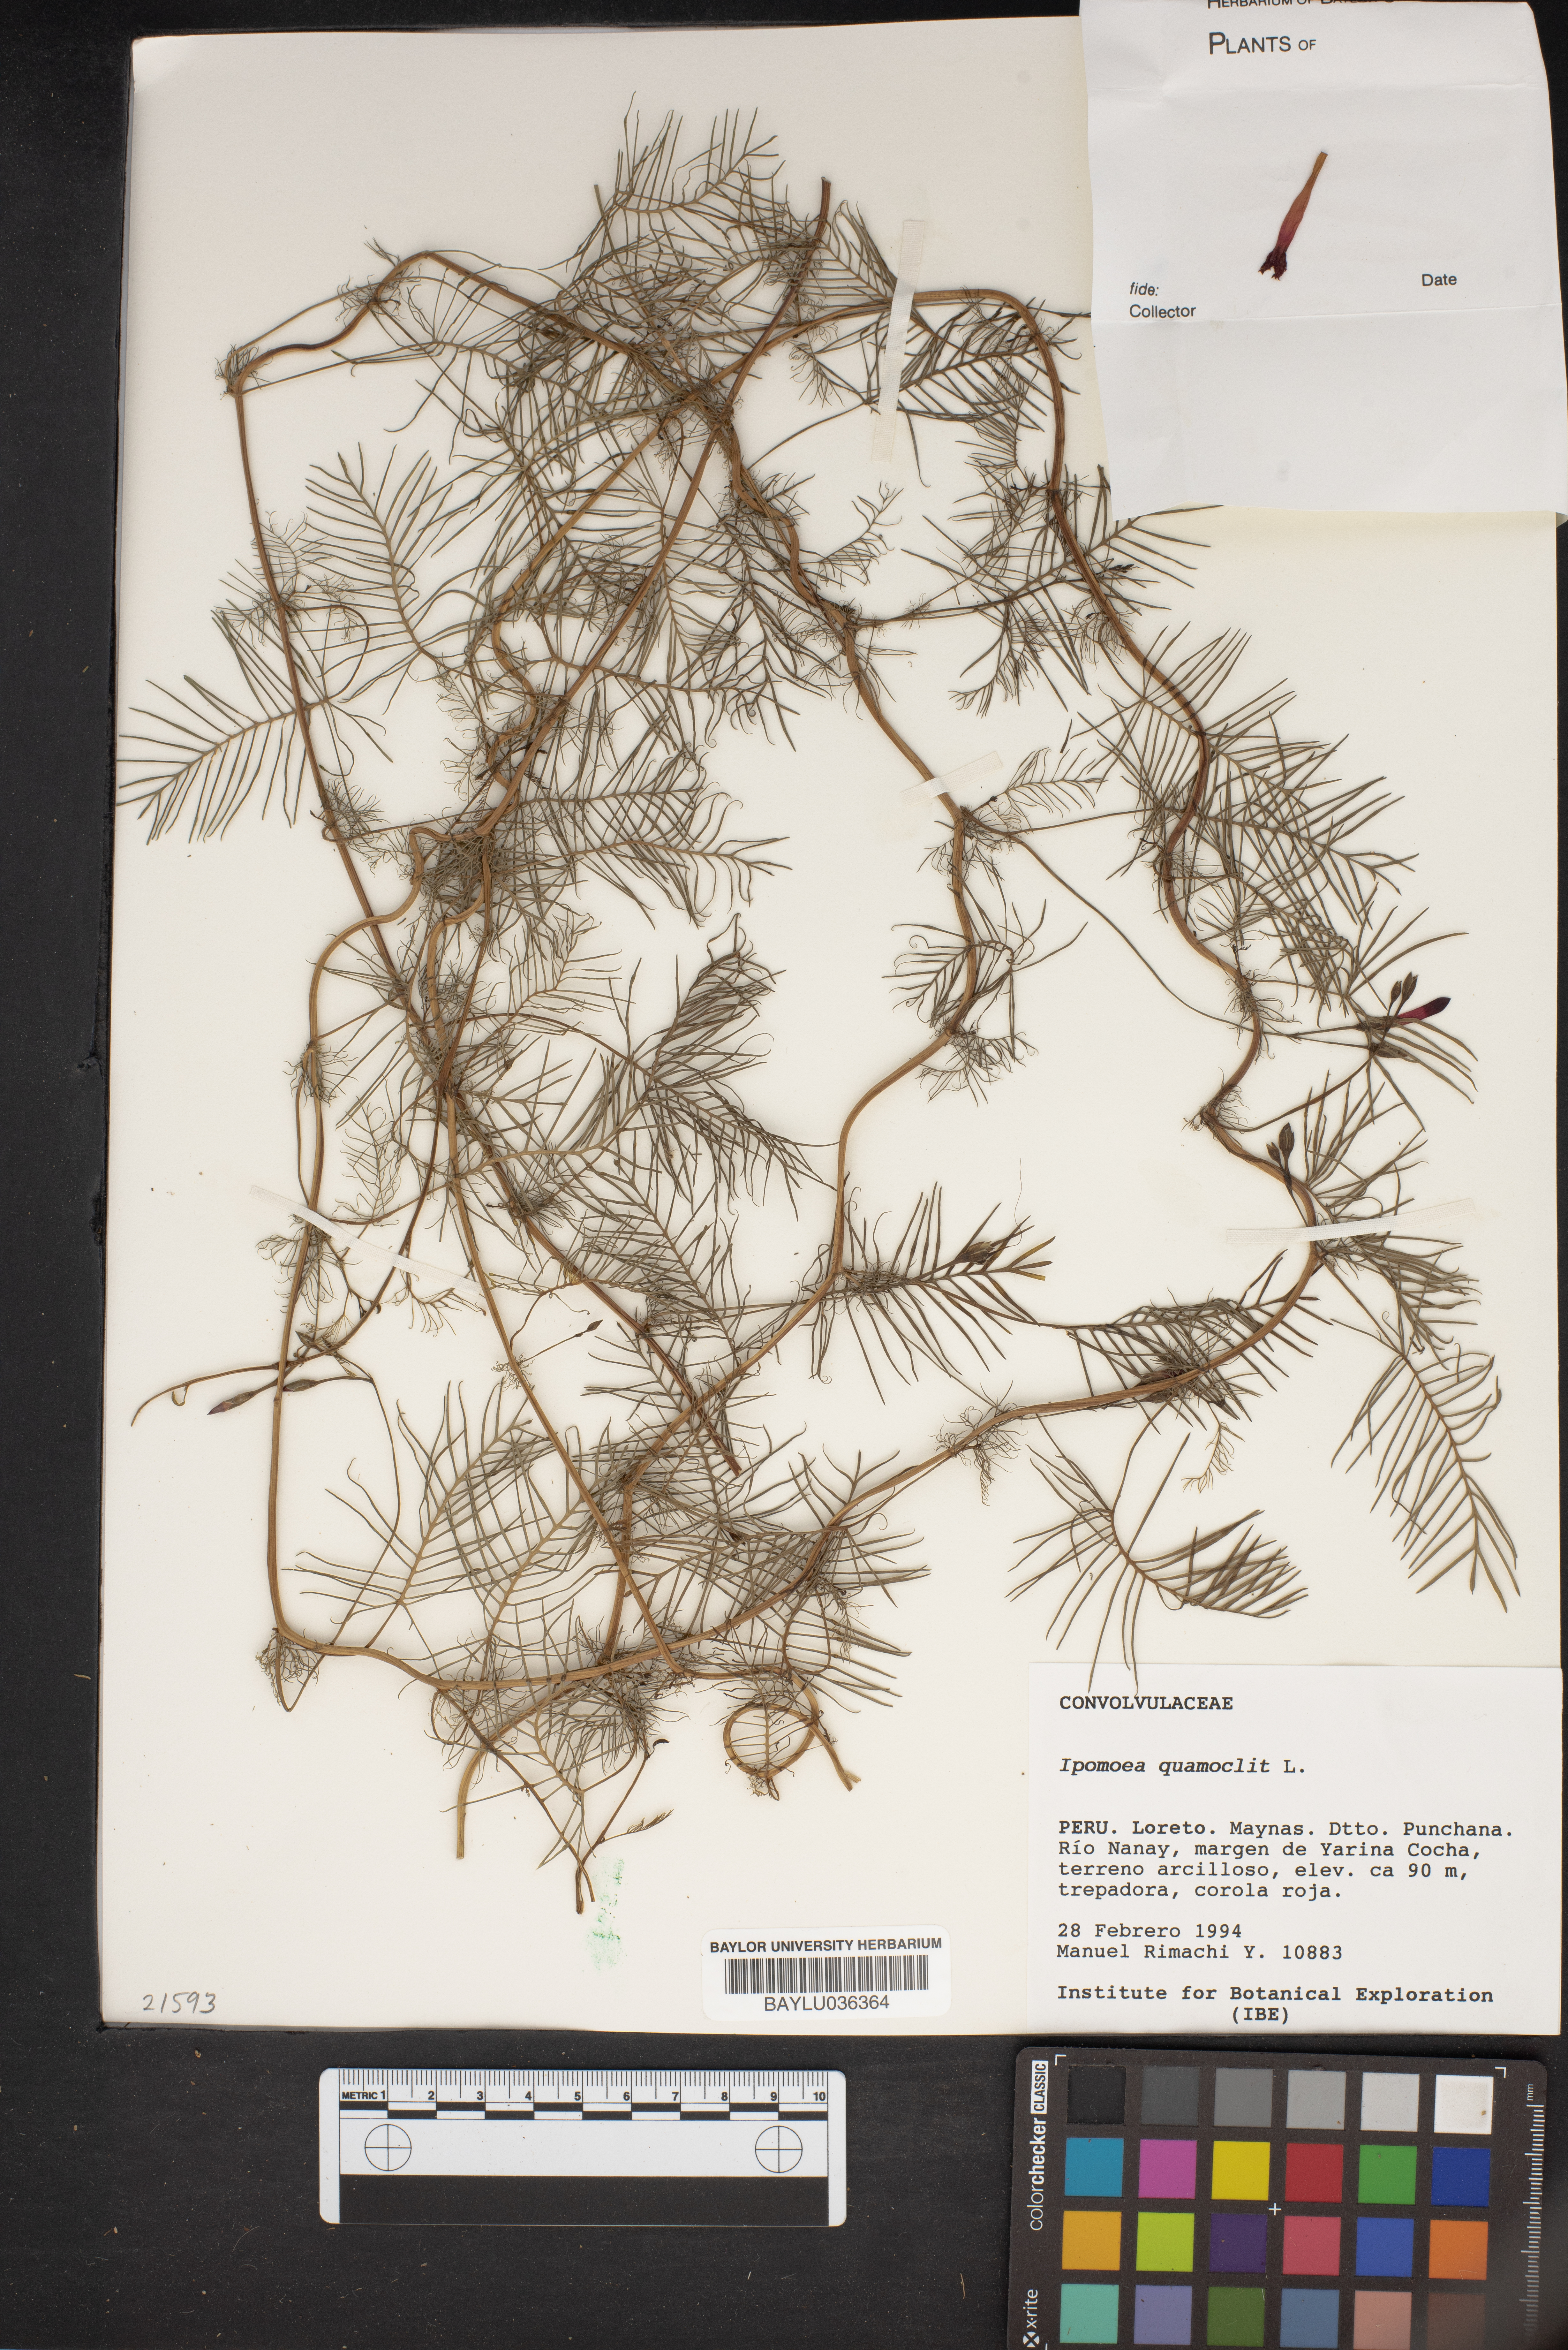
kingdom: Plantae
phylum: Tracheophyta
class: Magnoliopsida
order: Solanales
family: Convolvulaceae
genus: Ipomoea
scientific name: Ipomoea quamoclit
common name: Cypress vine
